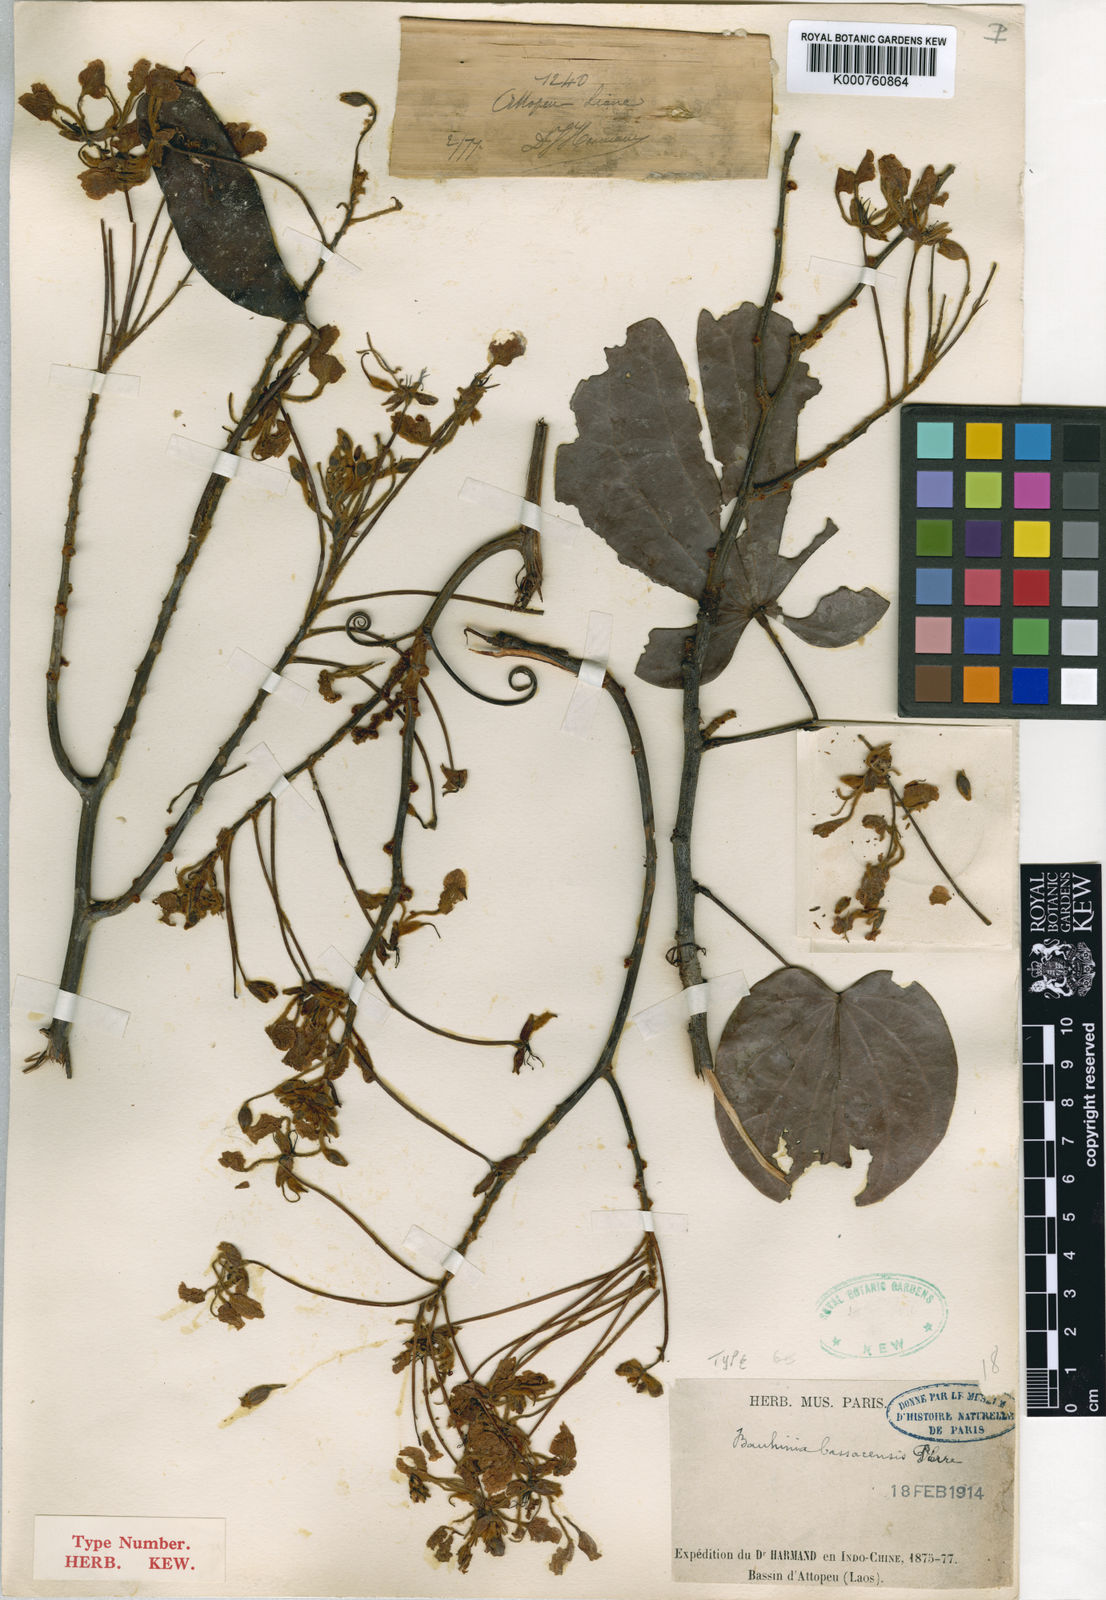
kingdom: Plantae
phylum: Tracheophyta
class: Magnoliopsida
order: Fabales
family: Fabaceae
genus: Phanera
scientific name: Phanera bassacensis
